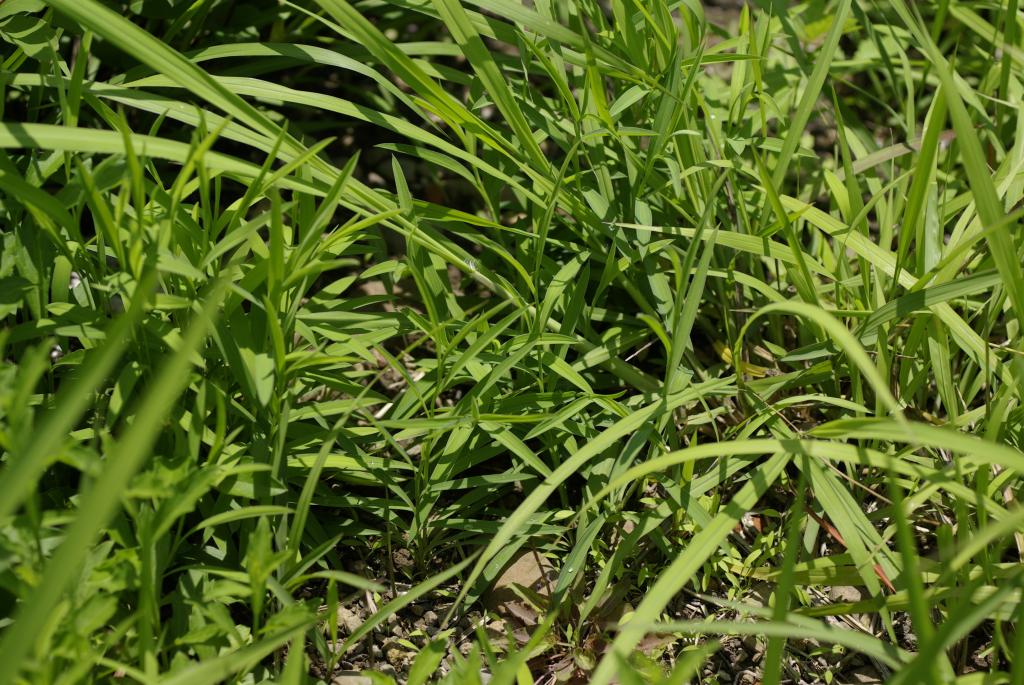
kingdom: Plantae
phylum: Tracheophyta
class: Magnoliopsida
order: Apiales
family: Apiaceae
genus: Bupleurum
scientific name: Bupleurum kaoi
